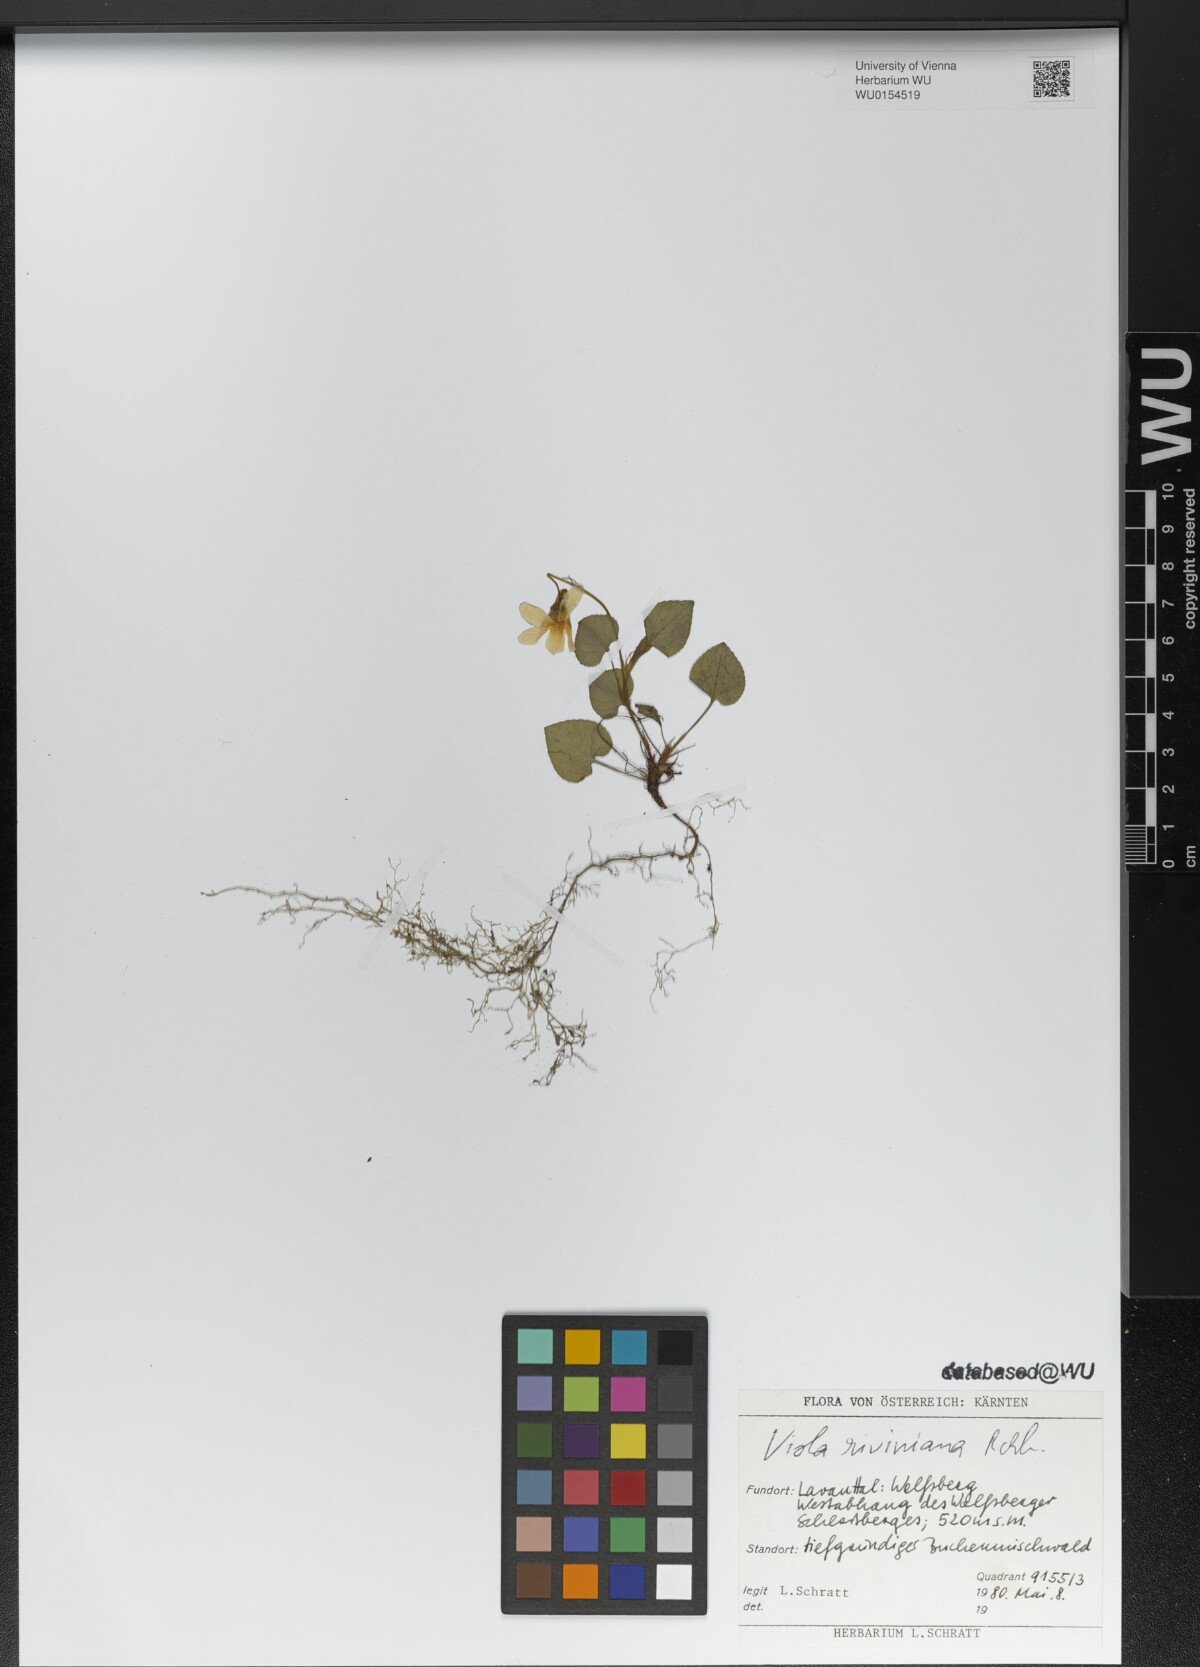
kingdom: Plantae
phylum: Tracheophyta
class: Magnoliopsida
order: Malpighiales
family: Violaceae
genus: Viola
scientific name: Viola riviniana
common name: Common dog-violet
